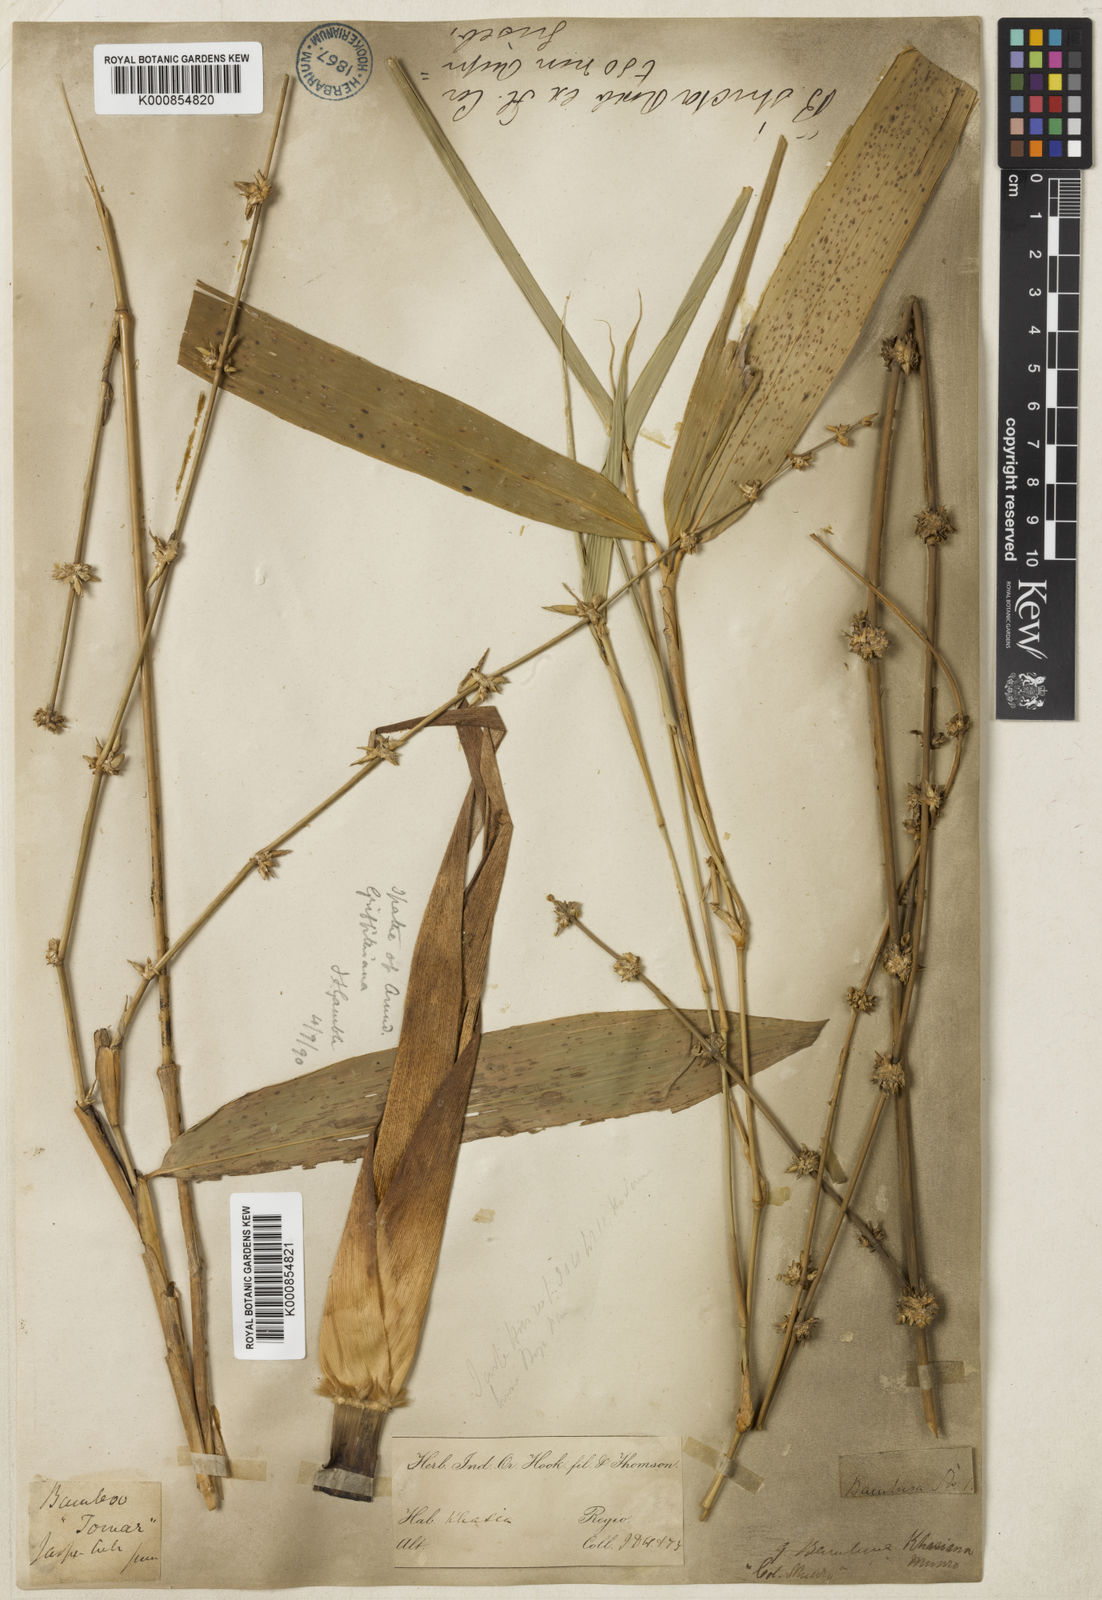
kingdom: Plantae
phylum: Tracheophyta
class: Liliopsida
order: Poales
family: Poaceae
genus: Bambusa
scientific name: Bambusa khasiana
